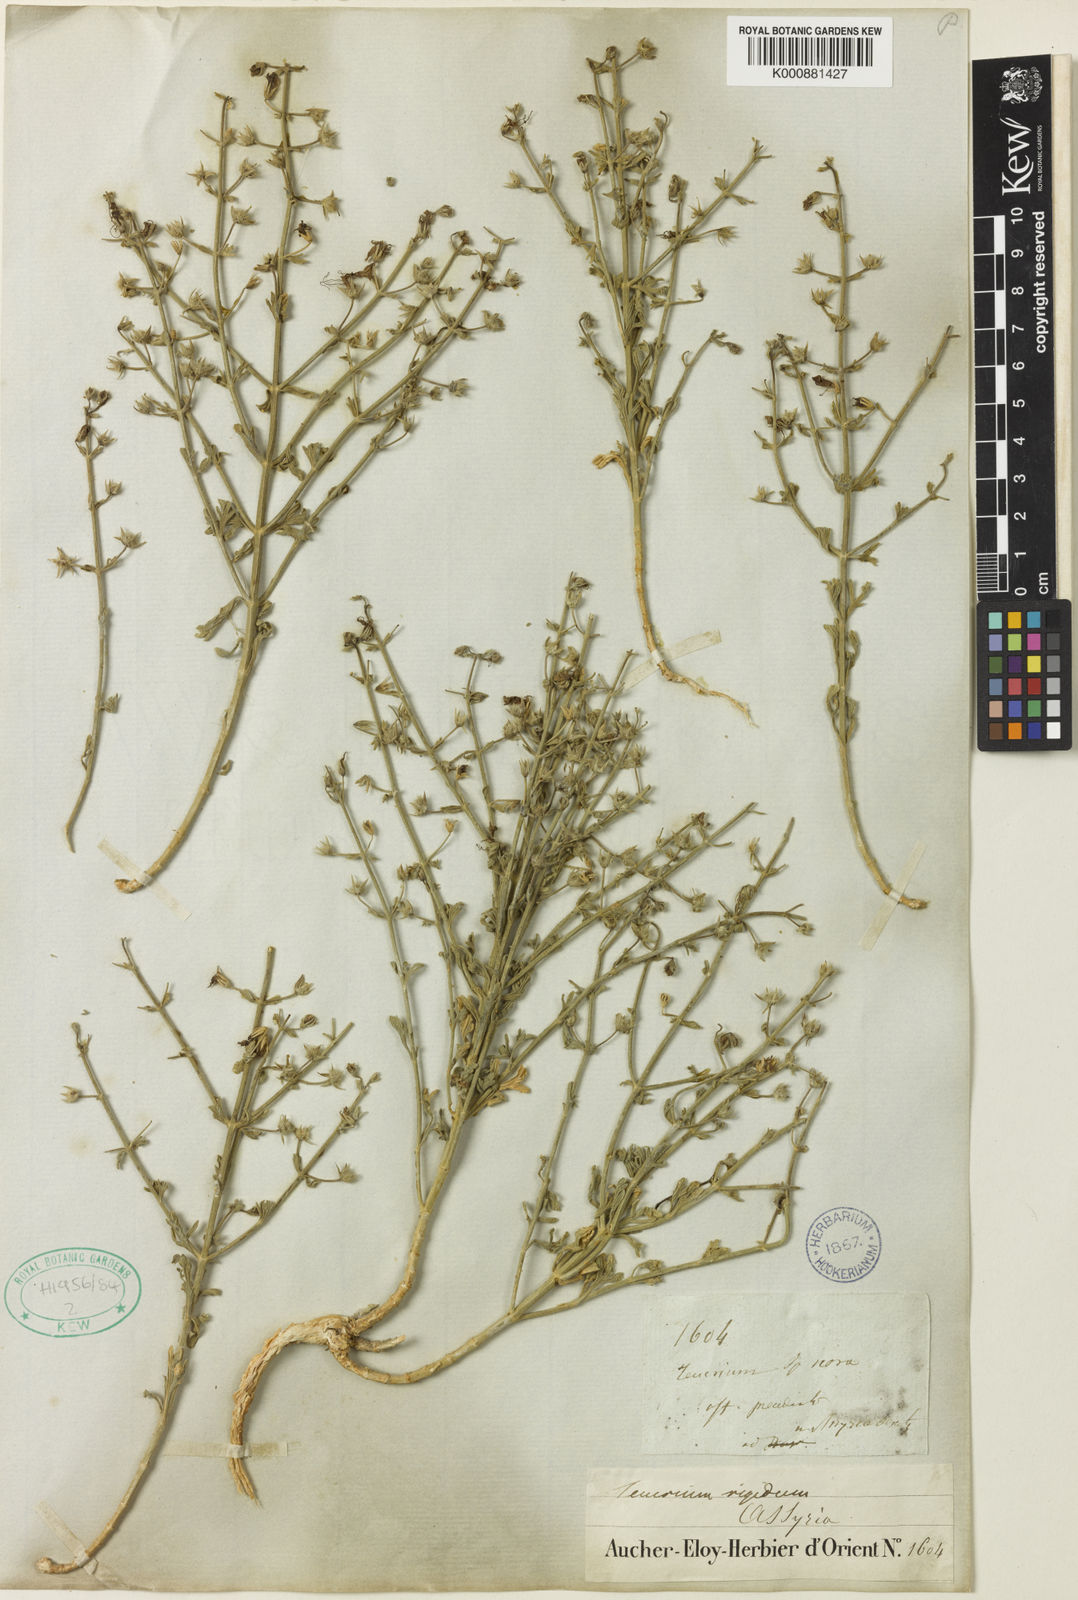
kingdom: Plantae
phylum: Tracheophyta
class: Magnoliopsida
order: Lamiales
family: Lamiaceae
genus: Teucrium
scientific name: Teucrium rigidum
